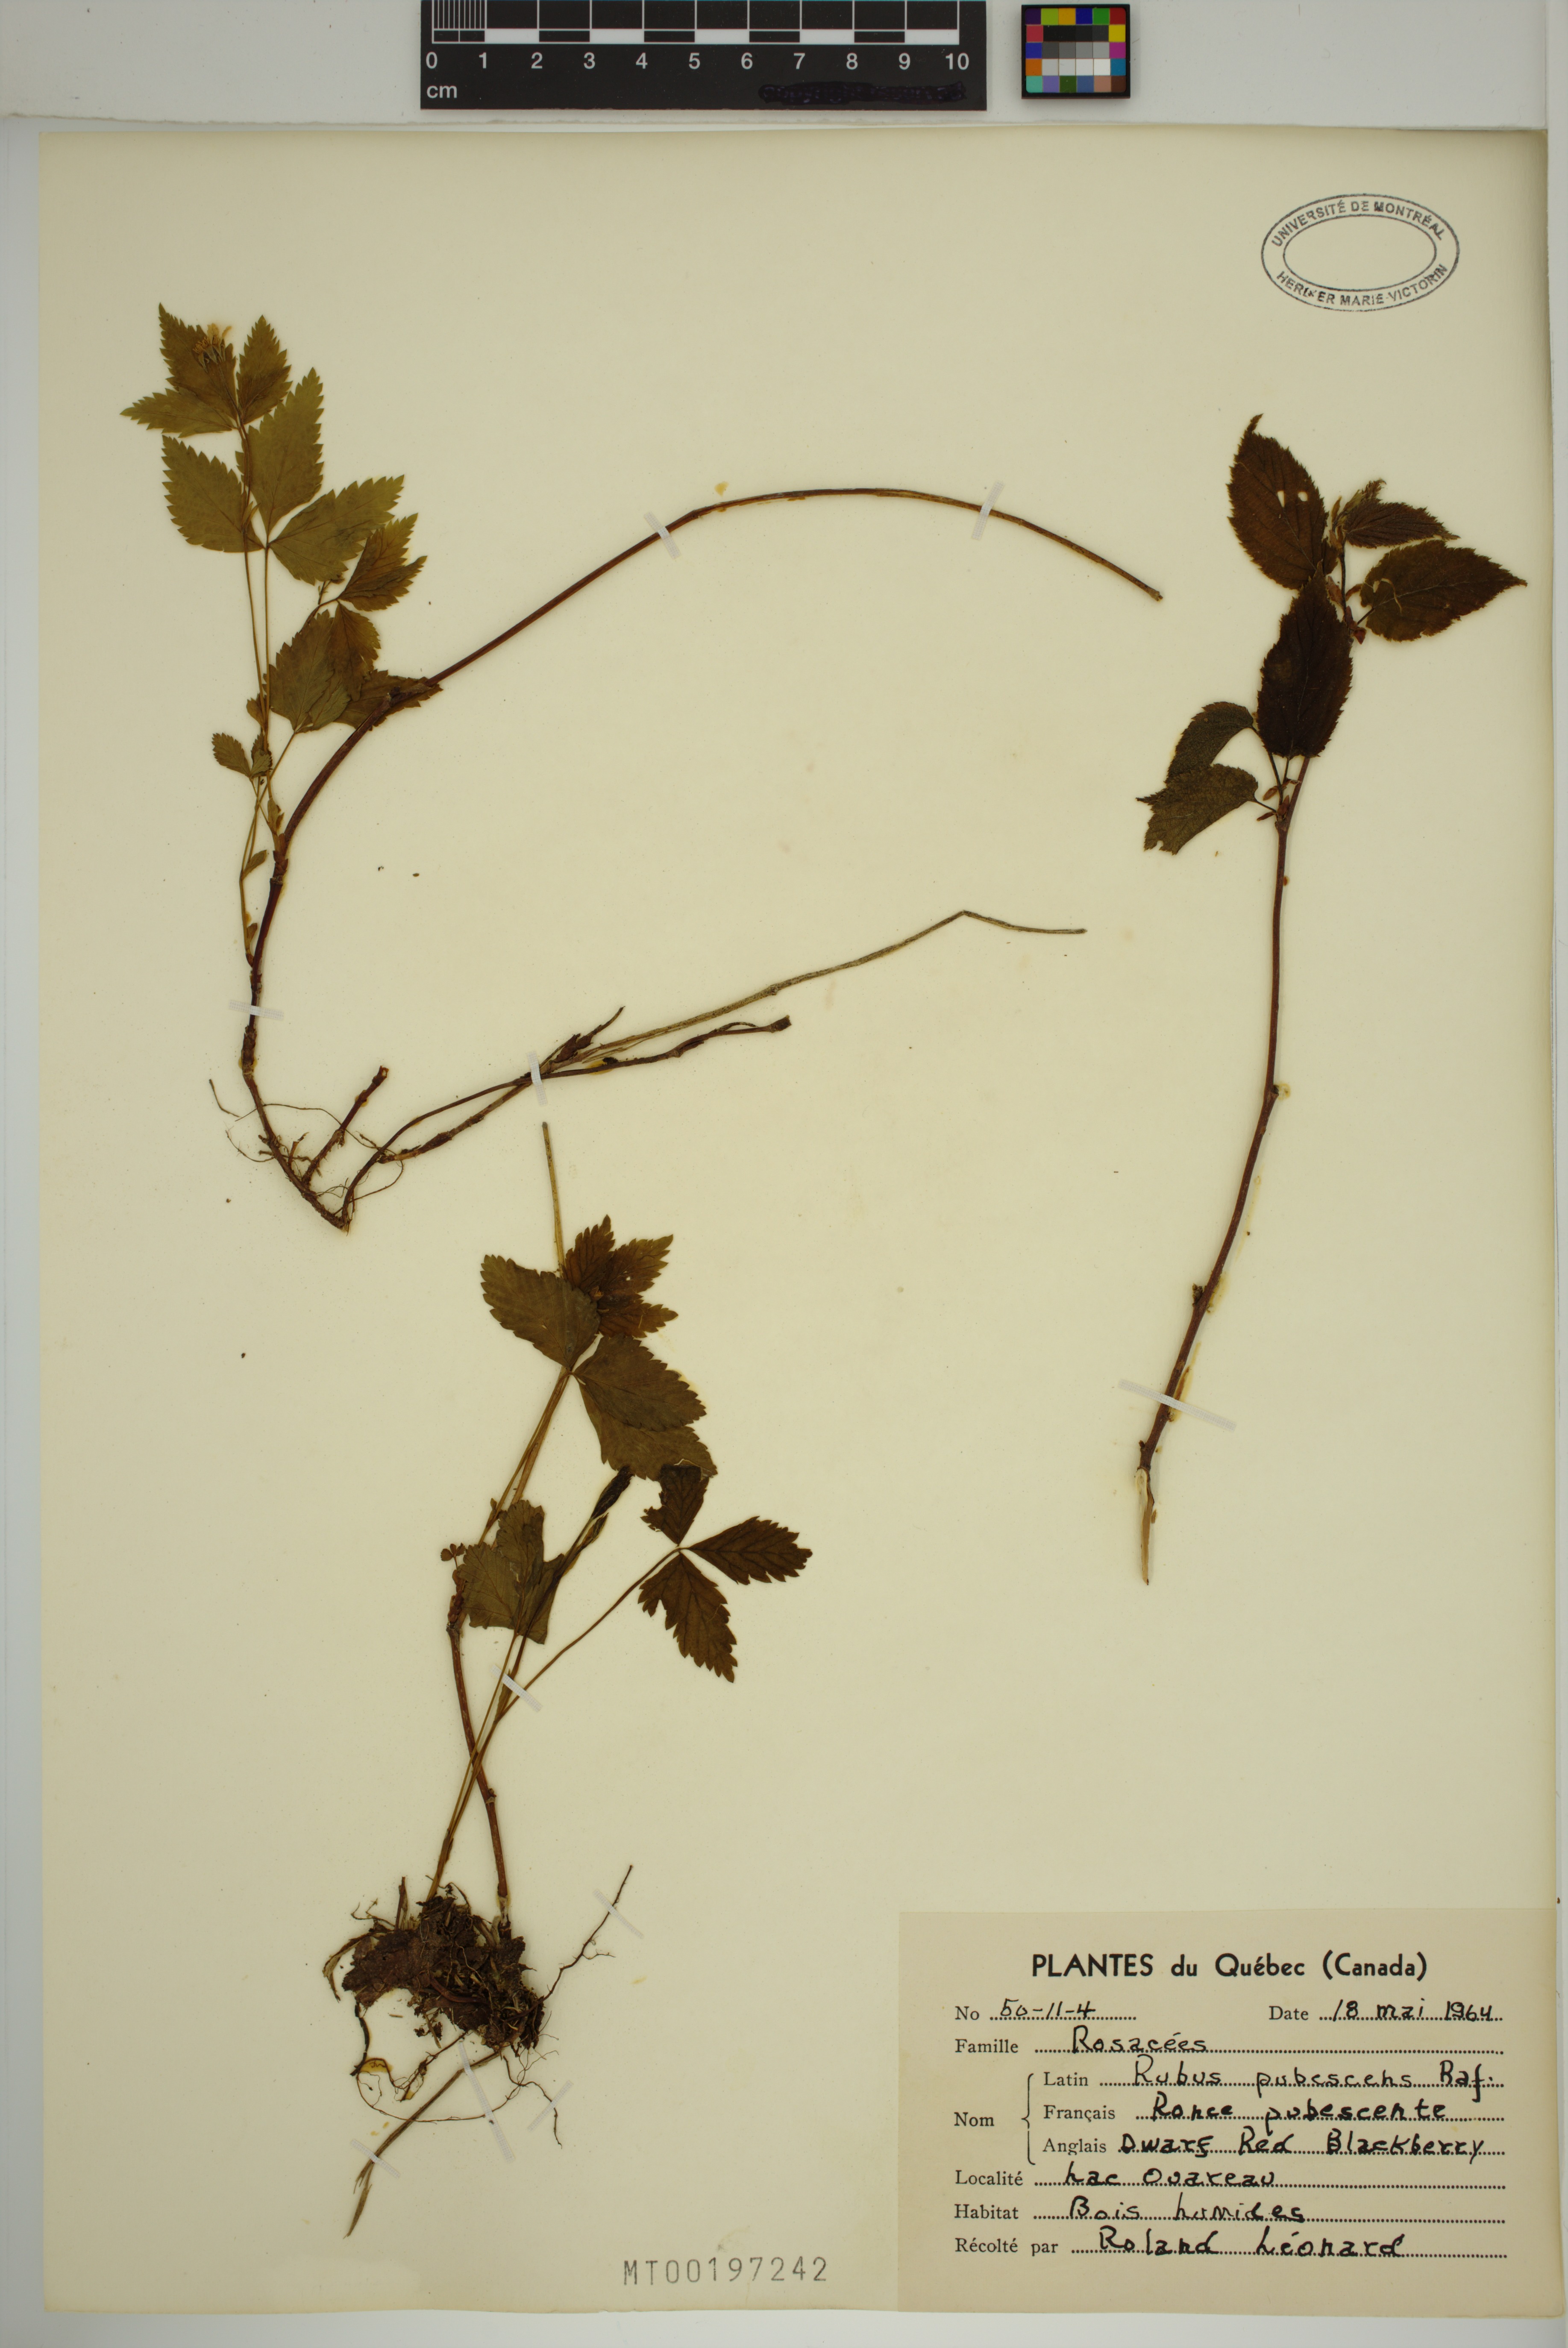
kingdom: Plantae
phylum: Tracheophyta
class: Magnoliopsida
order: Rosales
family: Rosaceae
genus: Rubus
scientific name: Rubus pubescens
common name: Dwarf raspberry
